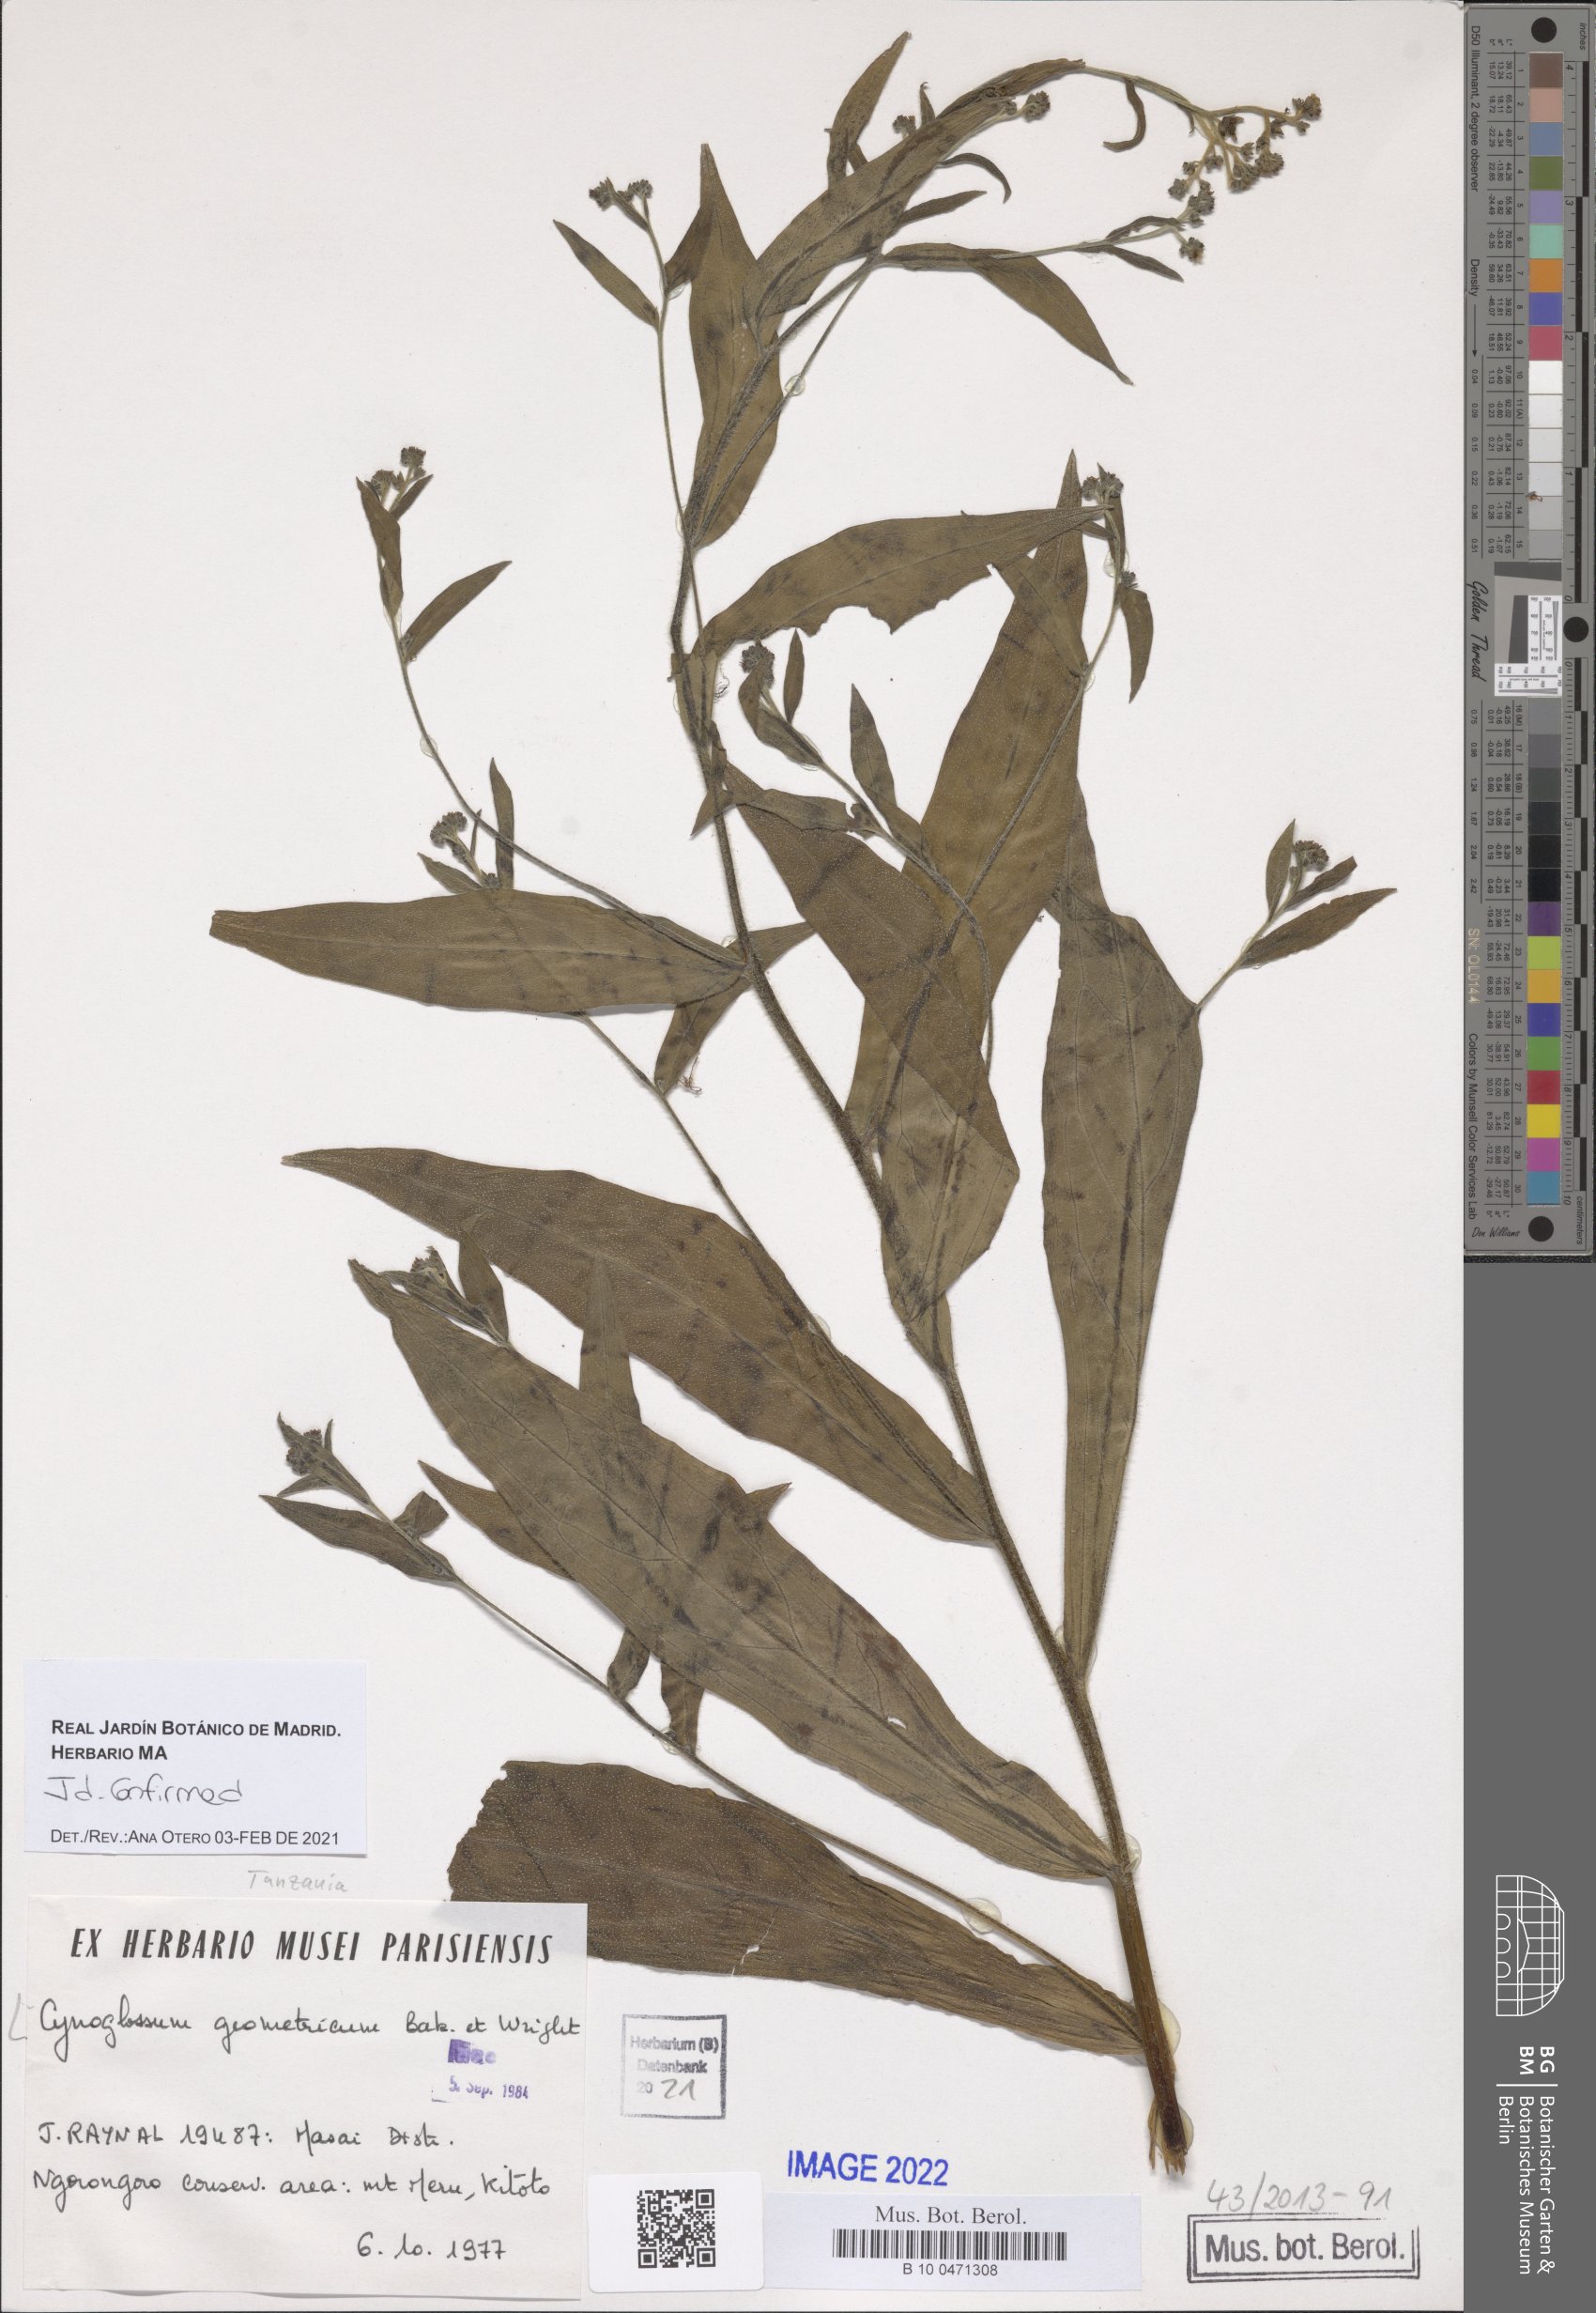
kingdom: Plantae
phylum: Tracheophyta
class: Magnoliopsida
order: Boraginales
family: Boraginaceae
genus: Paracynoglossum
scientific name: Paracynoglossum geometricum
